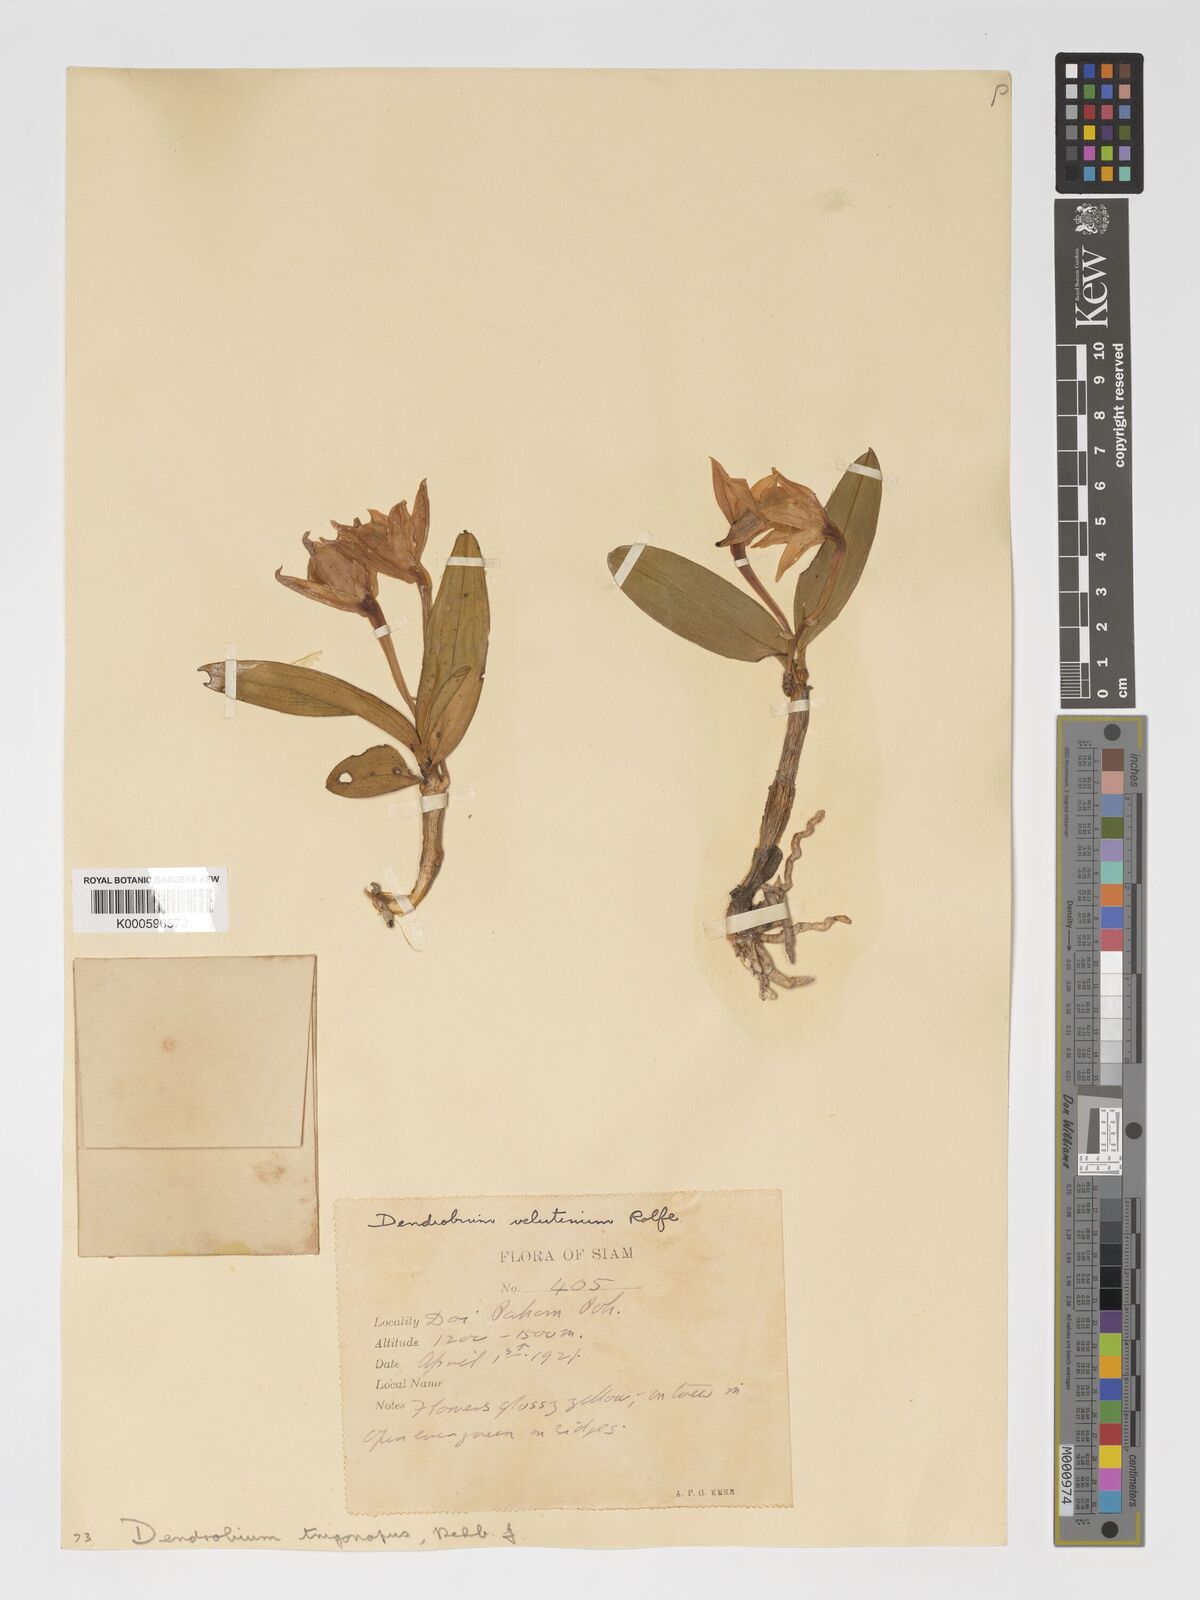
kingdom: Plantae
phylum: Tracheophyta
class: Liliopsida
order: Asparagales
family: Orchidaceae
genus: Dendrobium
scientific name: Dendrobium trigonopus
